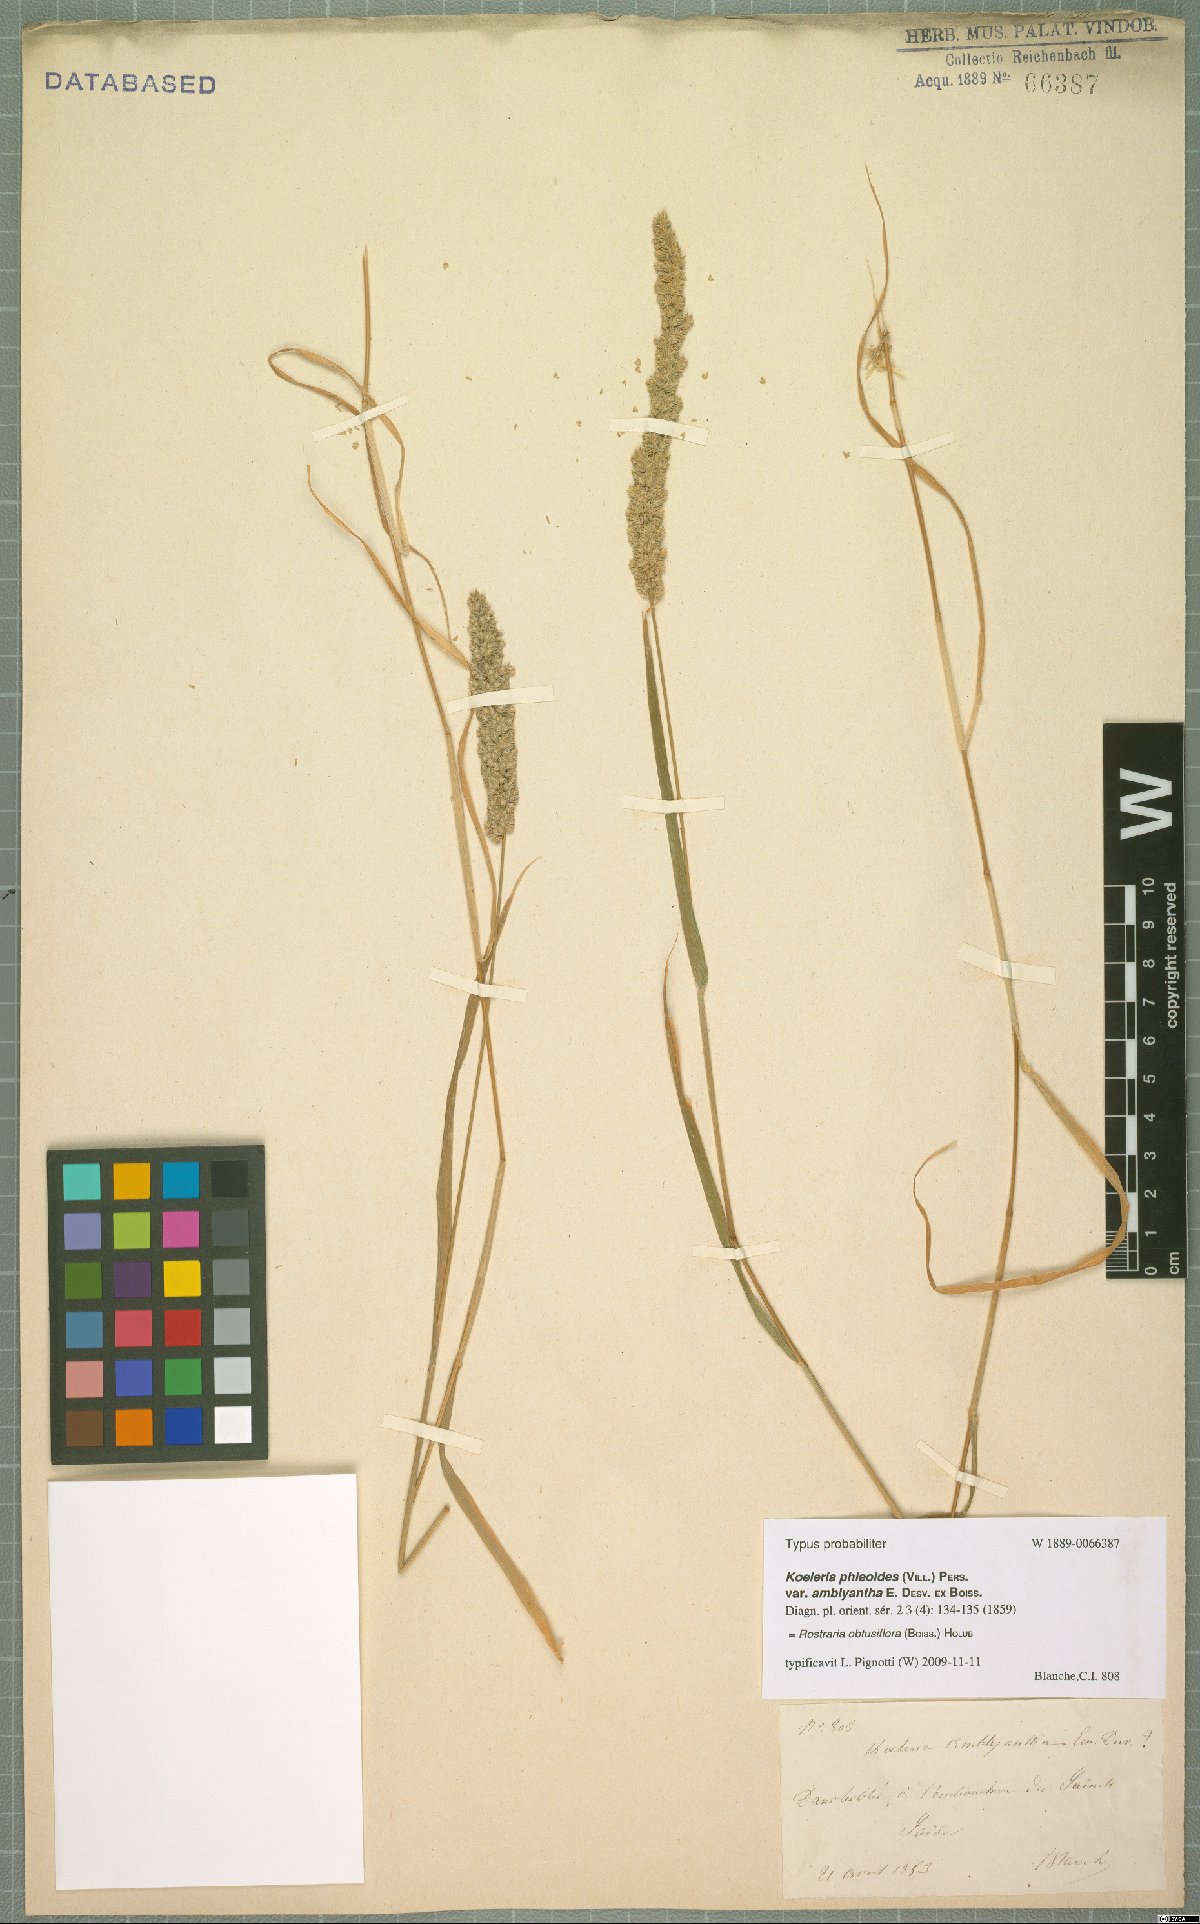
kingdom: Plantae
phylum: Tracheophyta
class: Liliopsida
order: Poales
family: Poaceae
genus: Rostraria
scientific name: Rostraria obtusiflora
